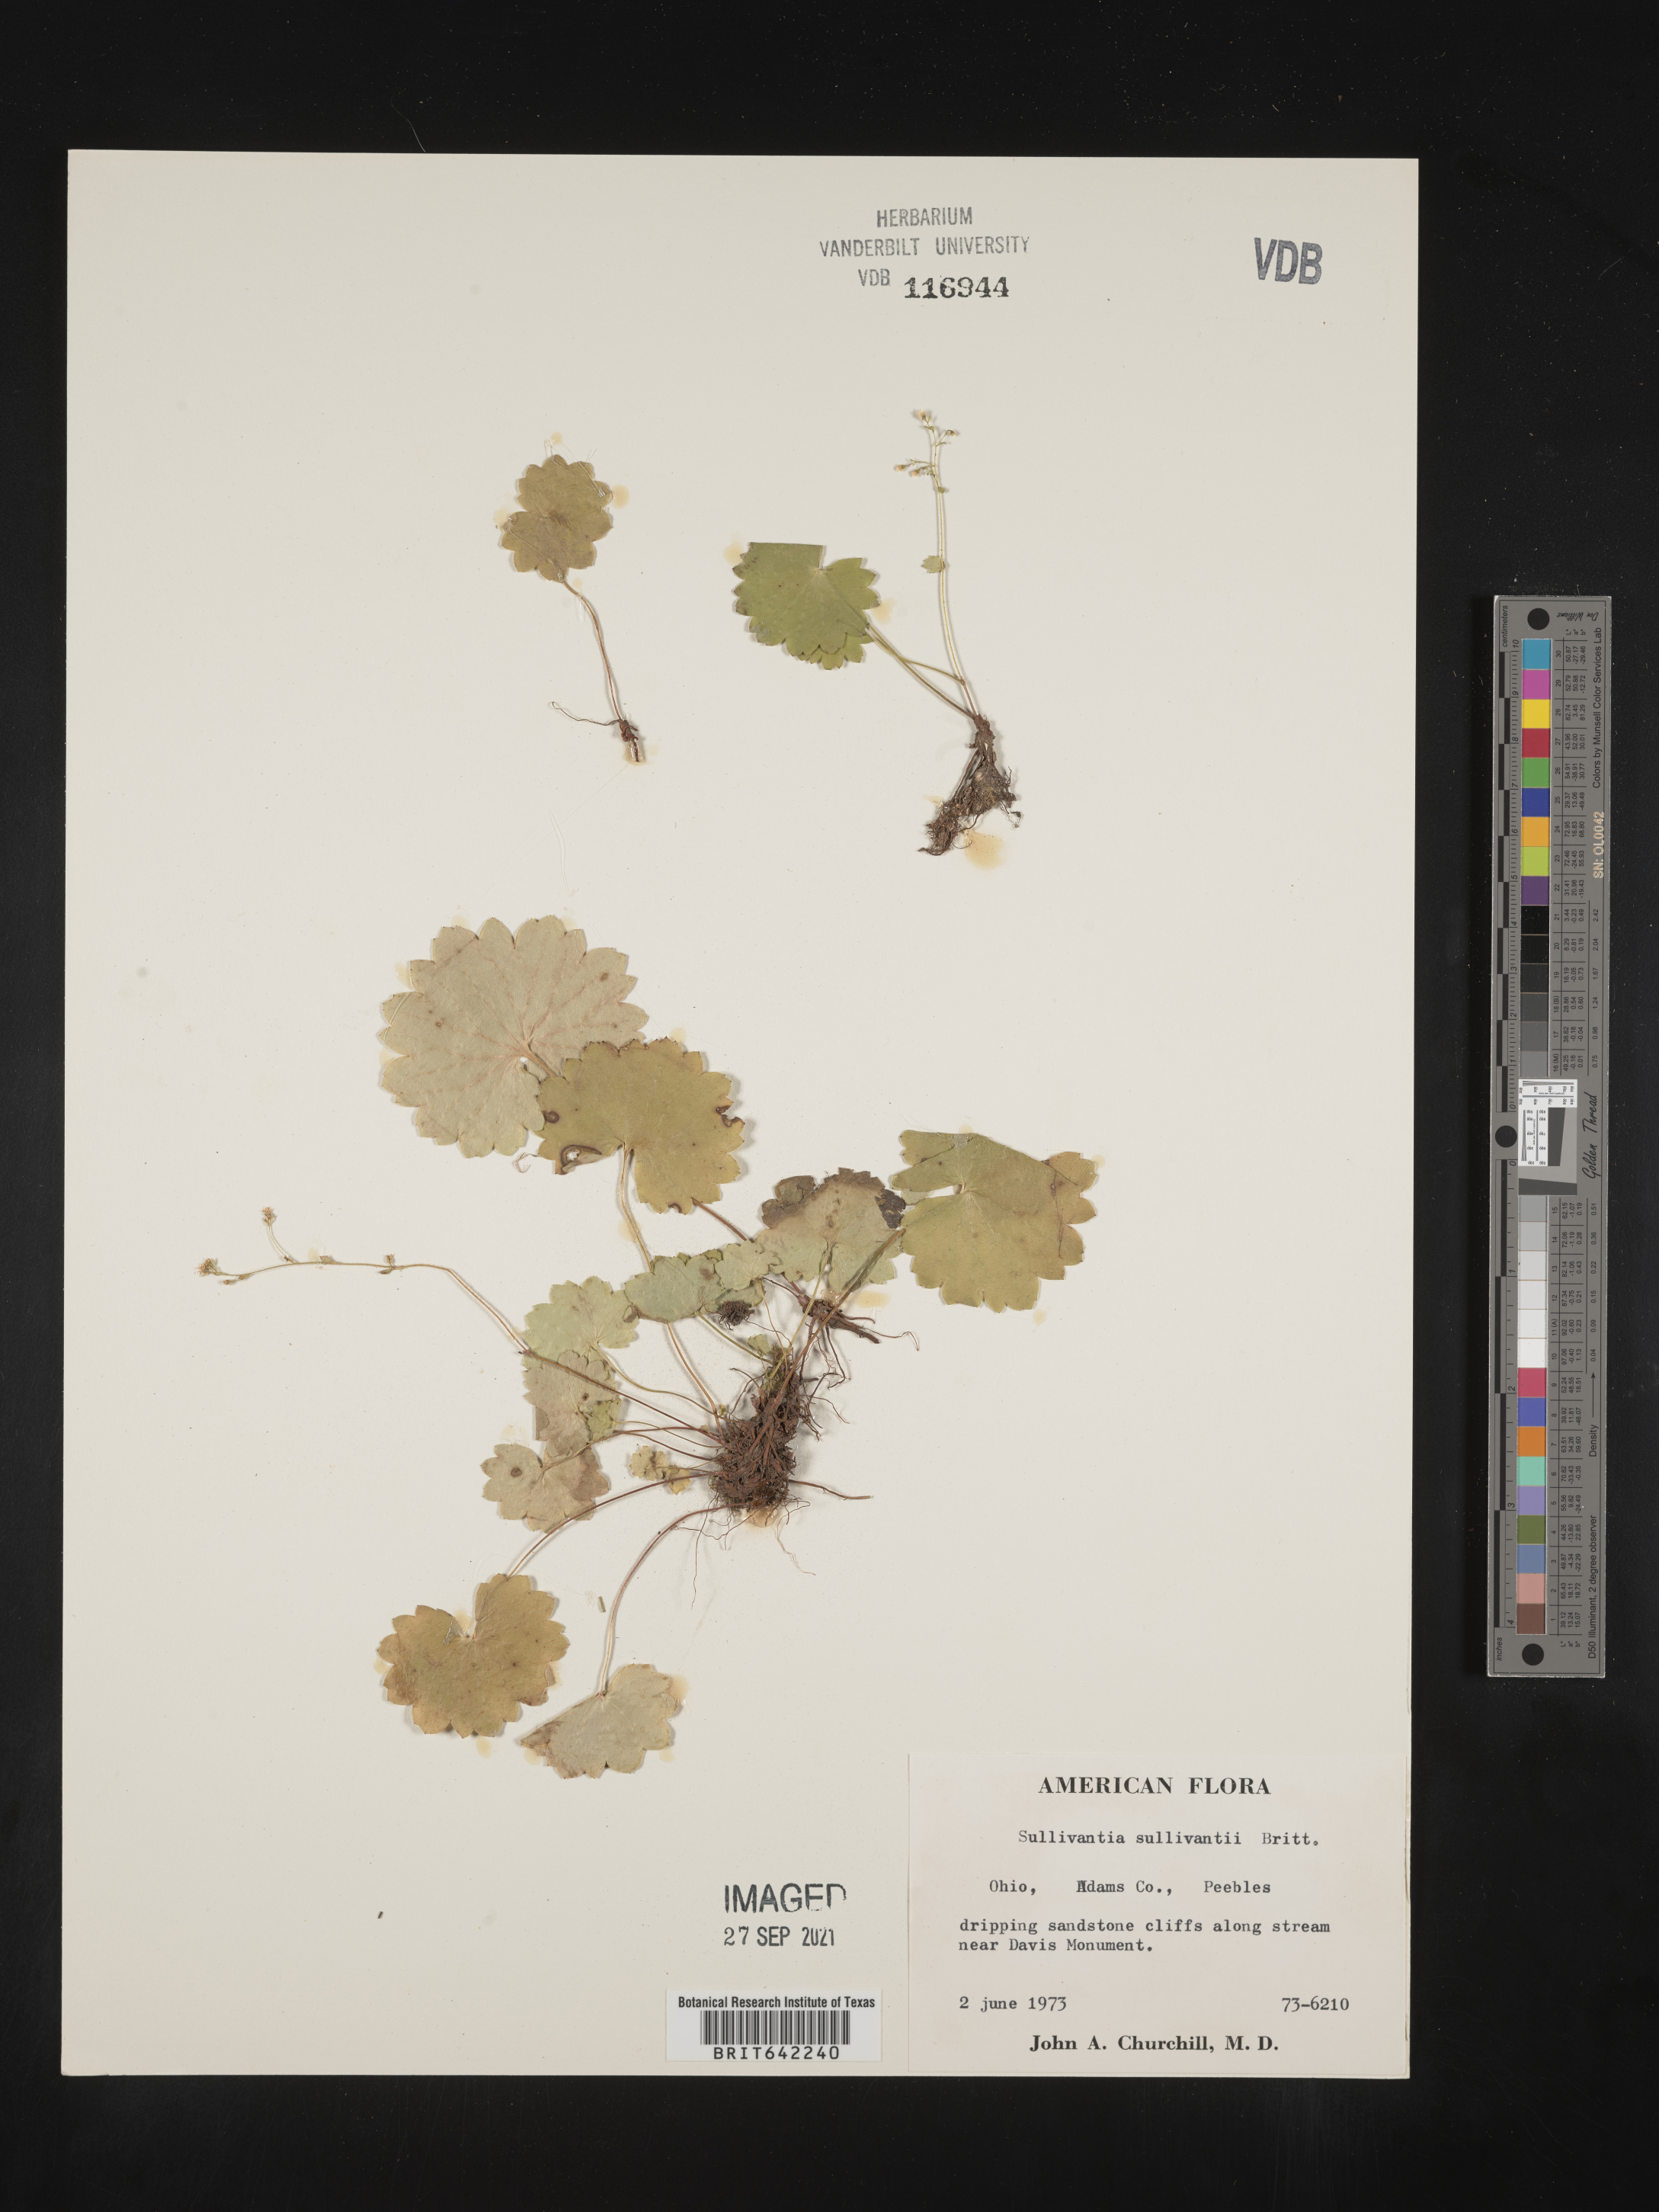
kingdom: Plantae
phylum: Tracheophyta
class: Magnoliopsida
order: Saxifragales
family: Saxifragaceae
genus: Sullivantia
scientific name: Sullivantia sullivantii
